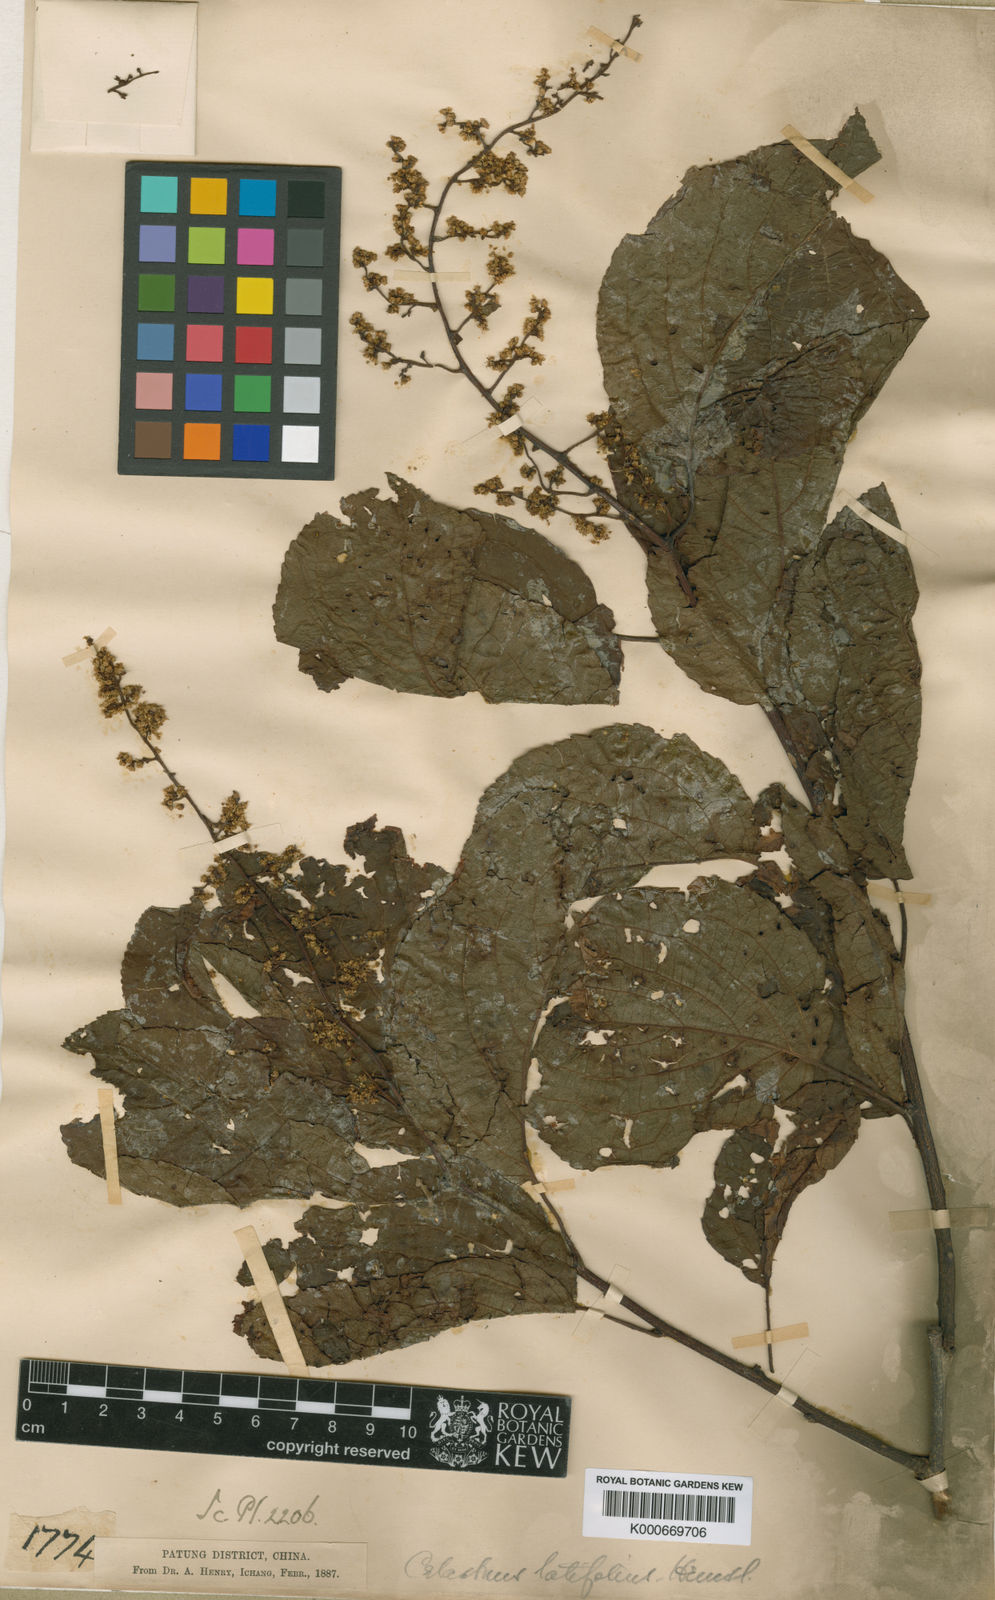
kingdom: Plantae
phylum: Tracheophyta
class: Magnoliopsida
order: Celastrales
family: Celastraceae
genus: Celastrus
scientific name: Celastrus angulatus
